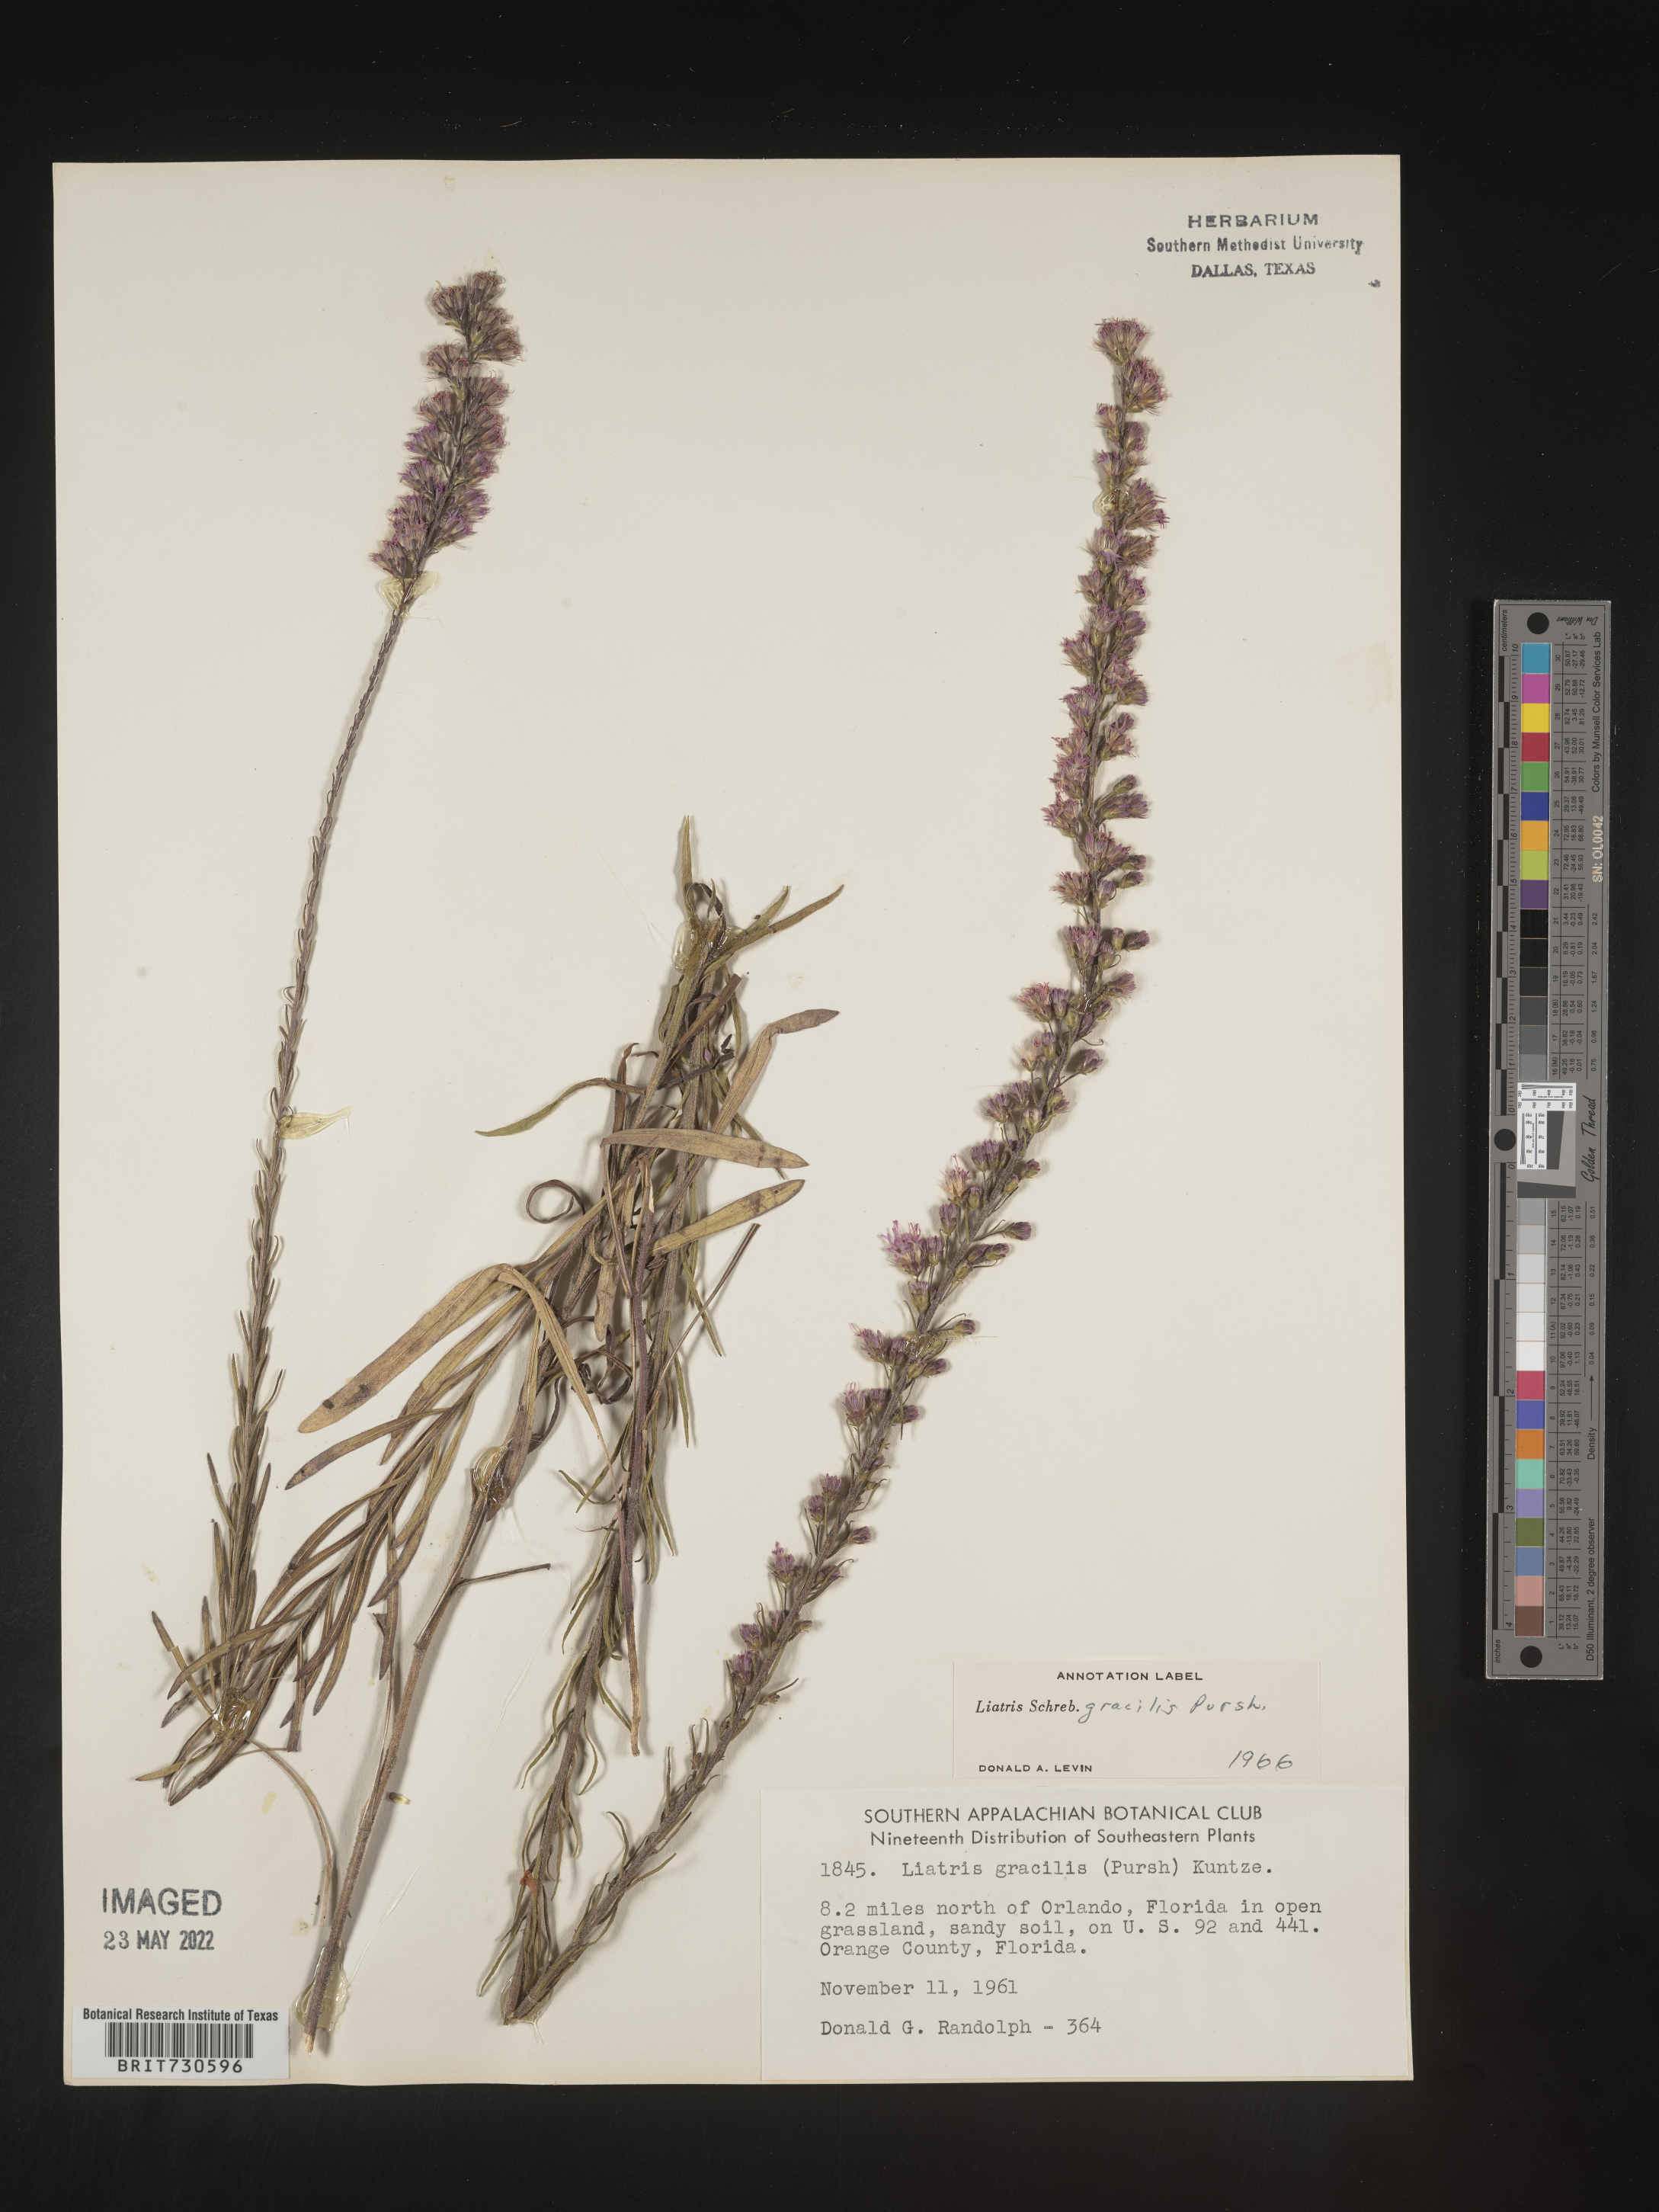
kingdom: Plantae
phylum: Tracheophyta
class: Magnoliopsida
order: Asterales
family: Asteraceae
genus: Liatris
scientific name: Liatris gracilis
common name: Slender gayfeather
